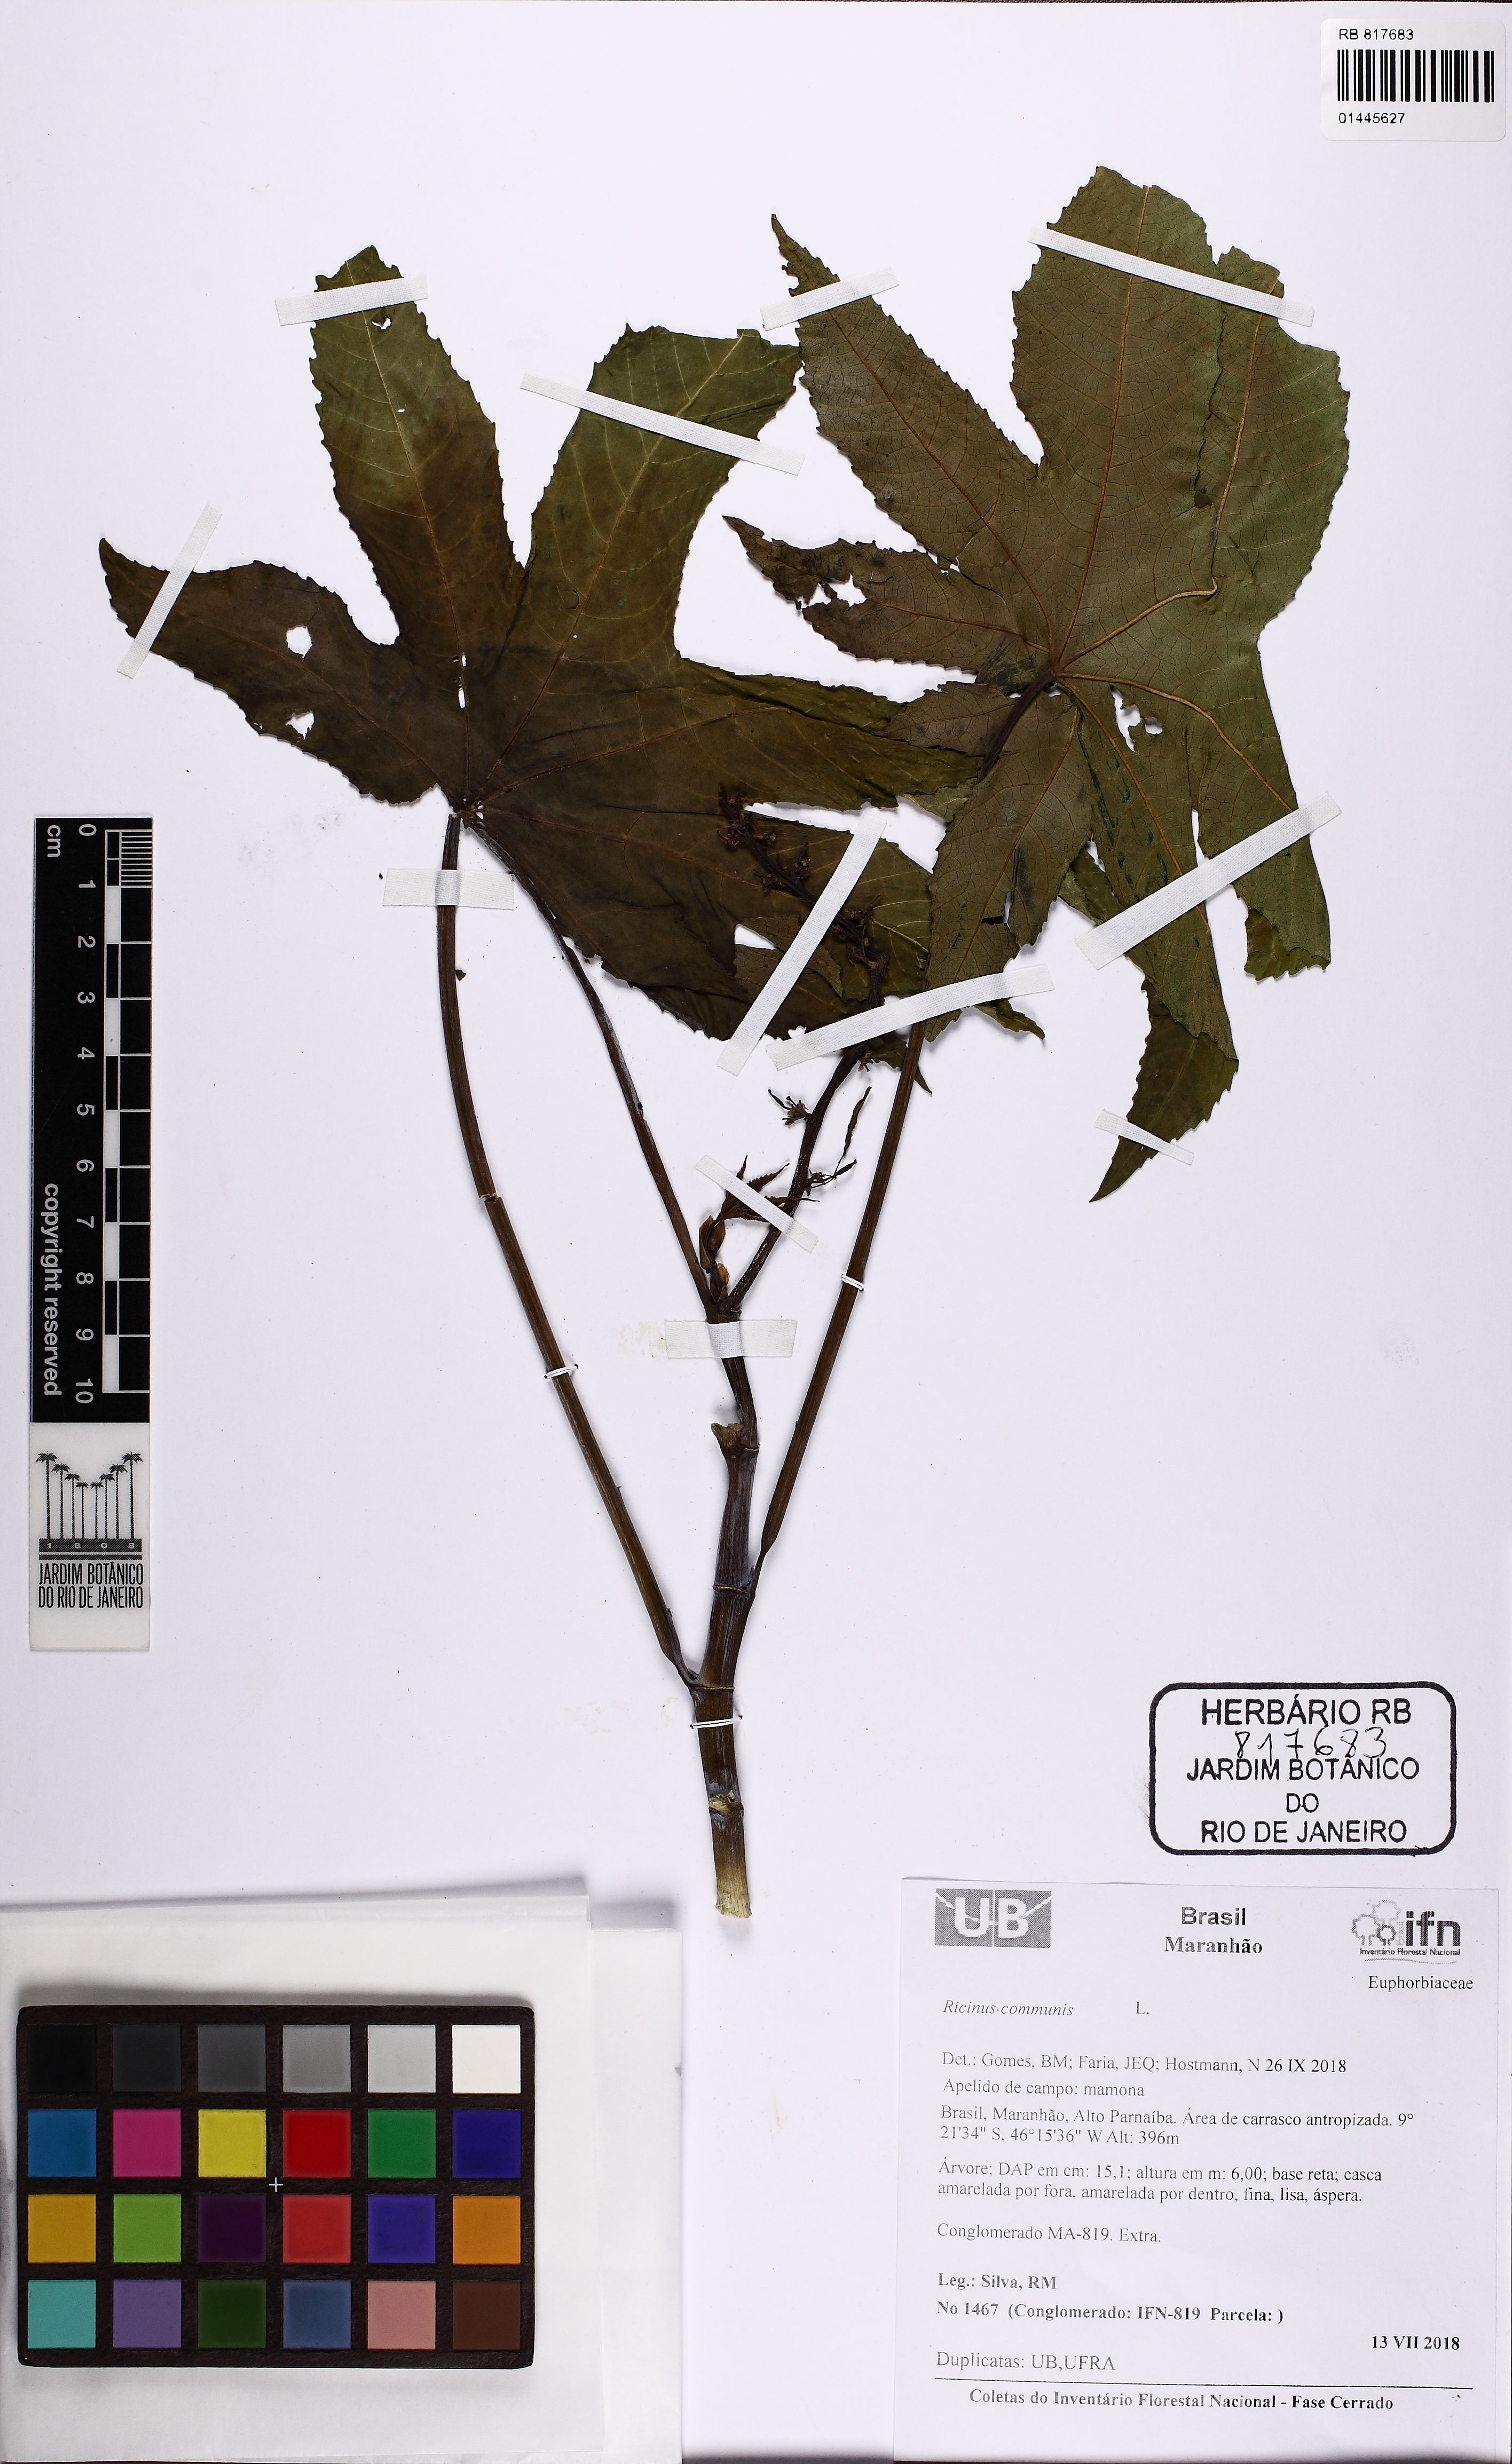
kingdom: Plantae
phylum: Tracheophyta
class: Magnoliopsida
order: Malpighiales
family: Euphorbiaceae
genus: Ricinus
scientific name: Ricinus communis
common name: Castor-oil-plant
